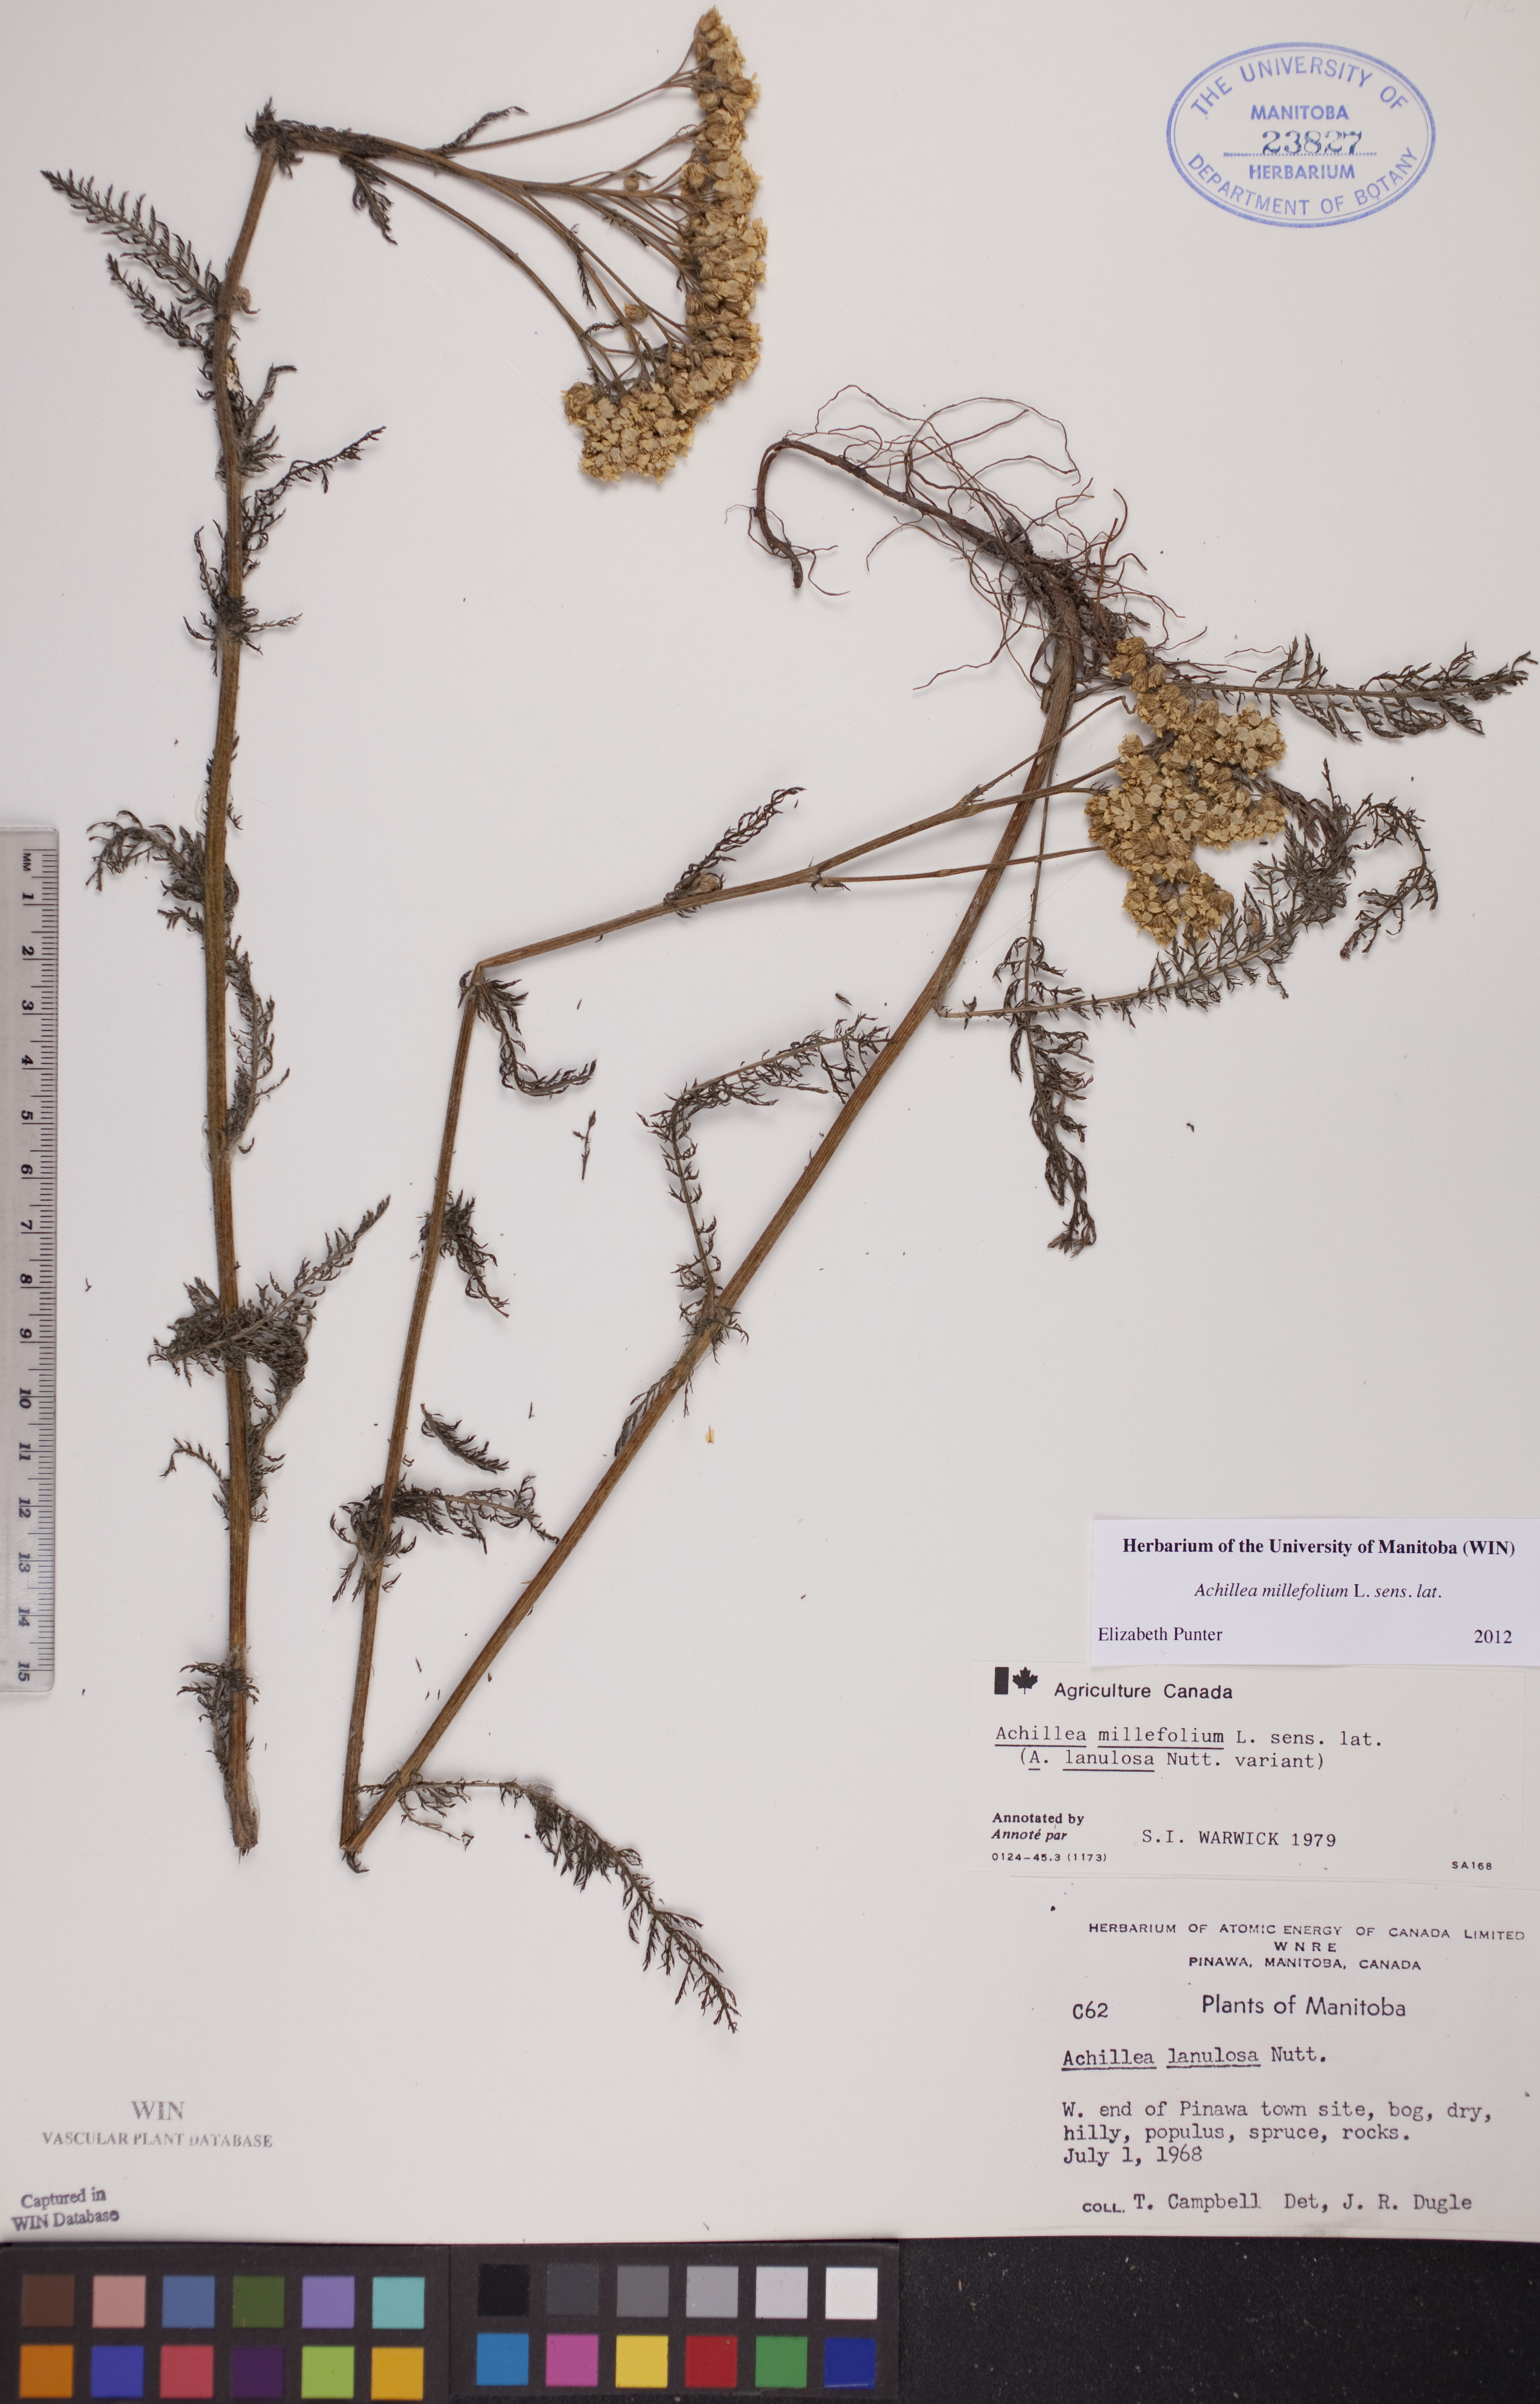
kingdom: Plantae
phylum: Tracheophyta
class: Magnoliopsida
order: Asterales
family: Asteraceae
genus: Achillea
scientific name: Achillea millefolium
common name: Yarrow
